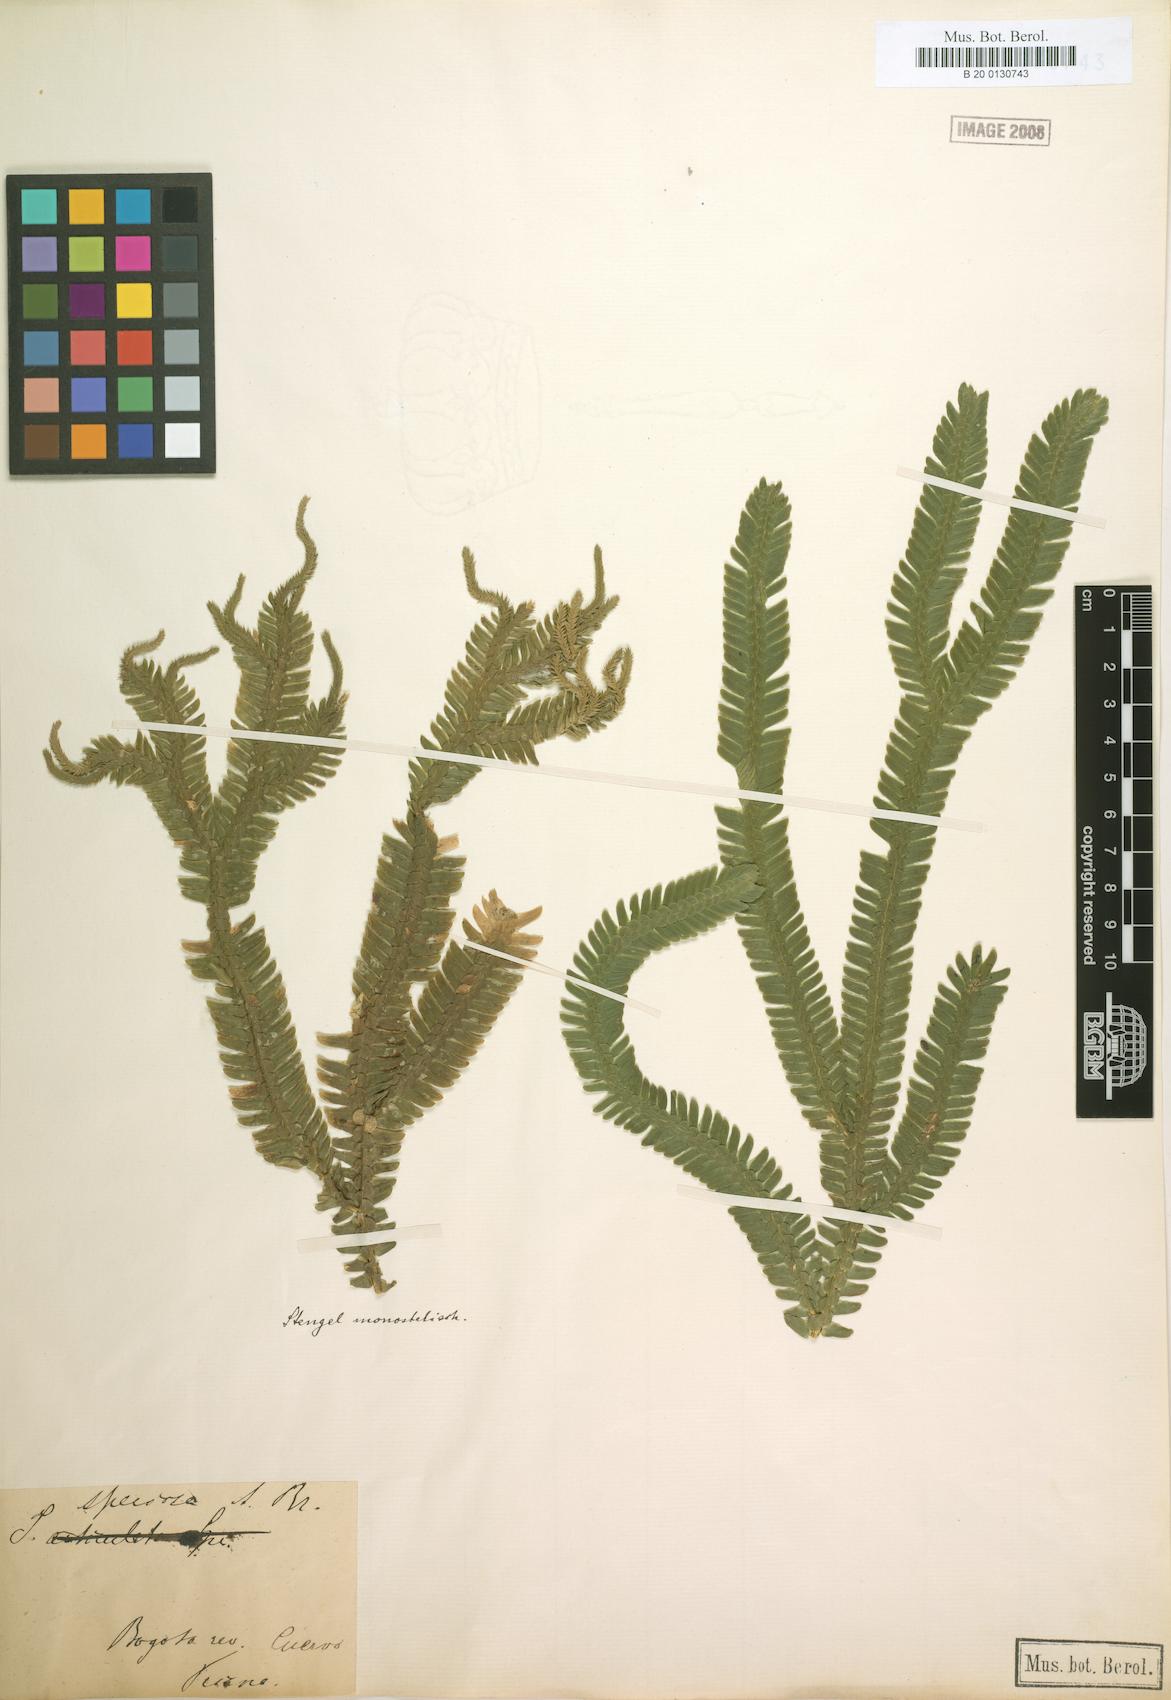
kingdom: Plantae
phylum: Tracheophyta
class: Lycopodiopsida
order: Selaginellales
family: Selaginellaceae
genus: Selaginella
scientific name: Selaginella speciosa
